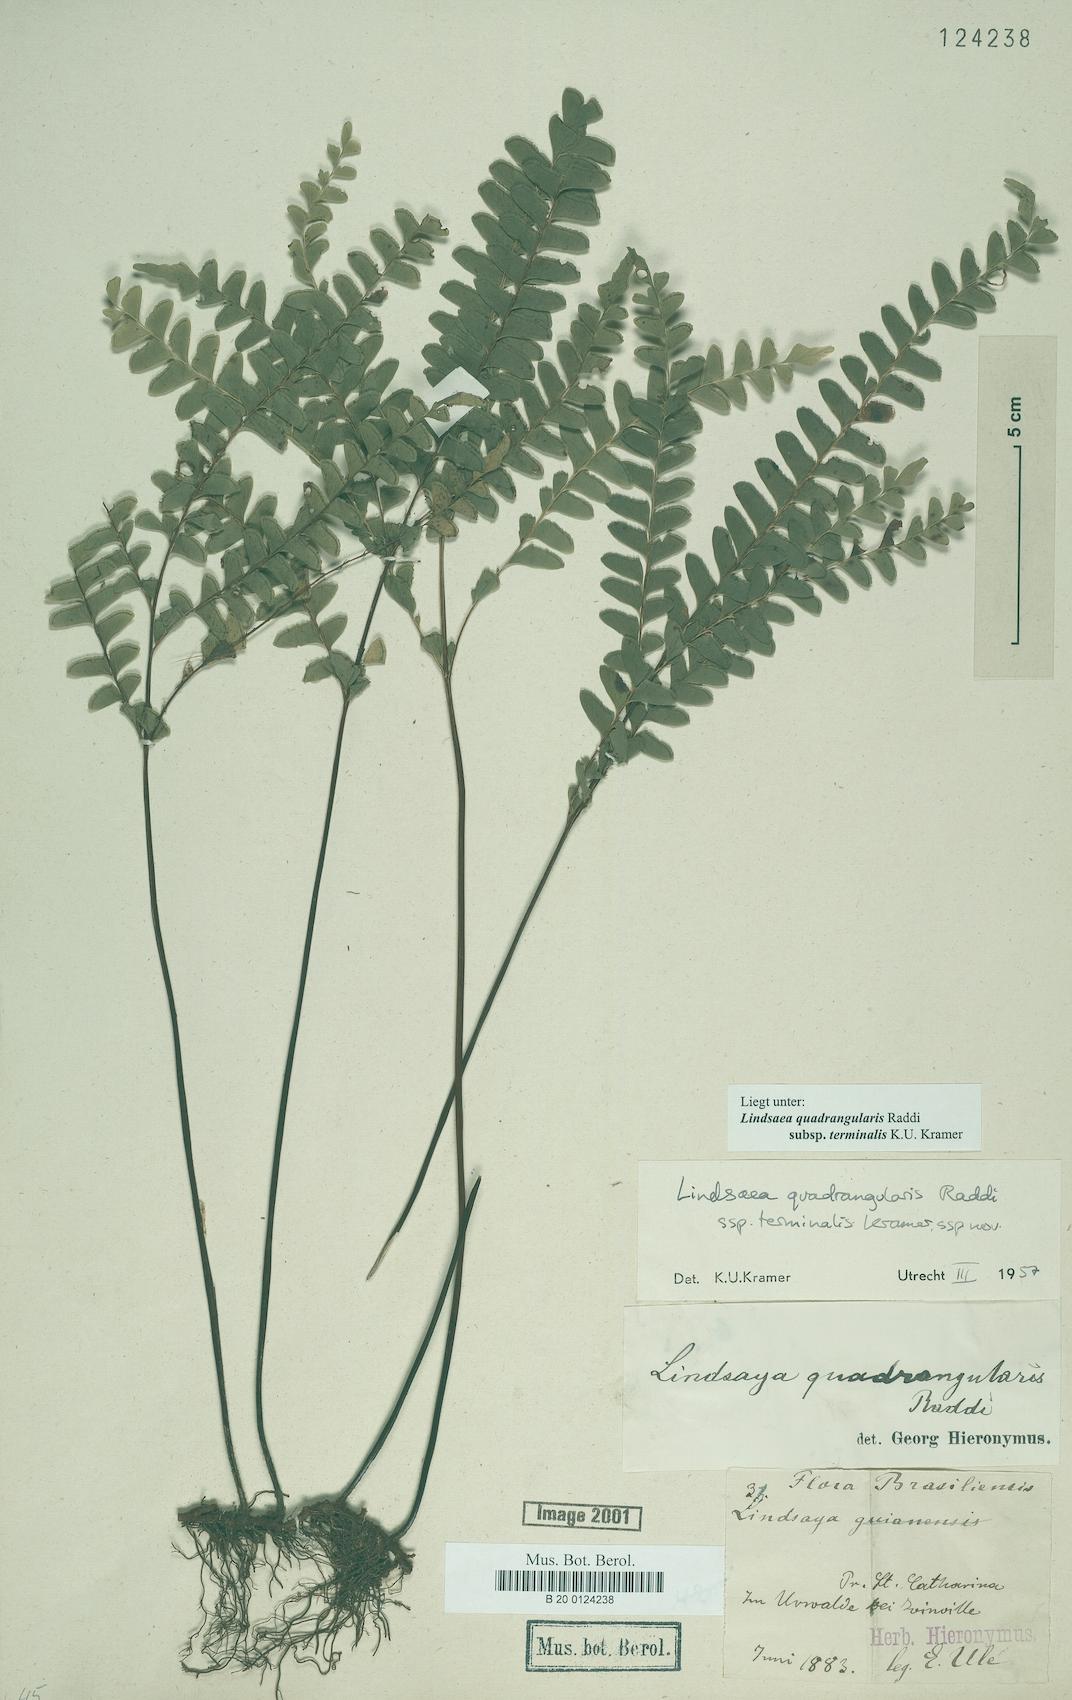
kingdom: Plantae
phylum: Tracheophyta
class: Polypodiopsida
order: Polypodiales
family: Lindsaeaceae
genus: Lindsaea
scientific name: Lindsaea terminalis
